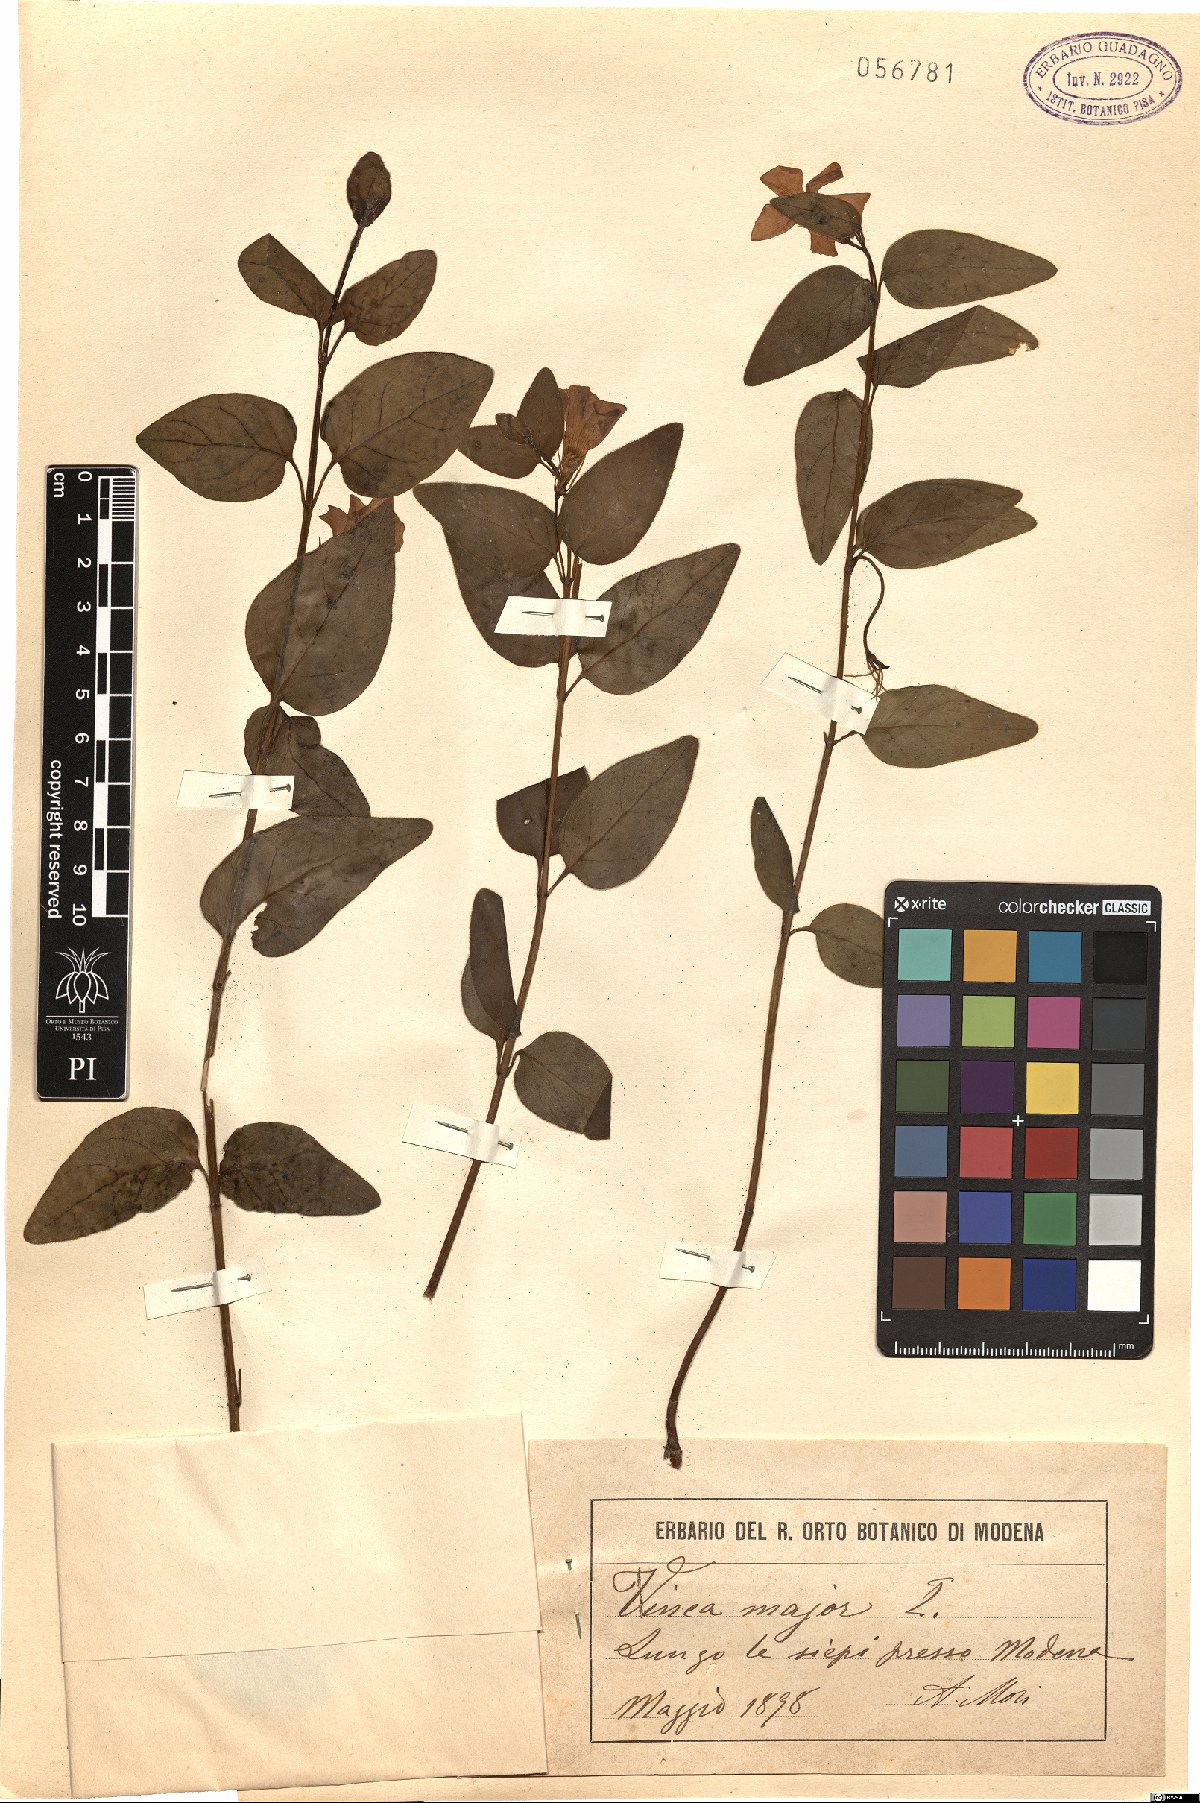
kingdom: Plantae
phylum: Tracheophyta
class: Magnoliopsida
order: Gentianales
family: Apocynaceae
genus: Vinca
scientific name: Vinca major
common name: Greater periwinkle
